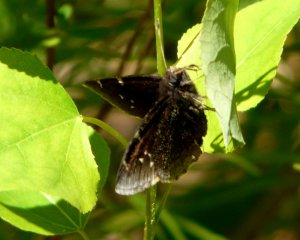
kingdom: Animalia
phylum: Arthropoda
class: Insecta
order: Lepidoptera
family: Hesperiidae
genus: Autochton
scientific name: Autochton
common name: Northern Cloudywing
